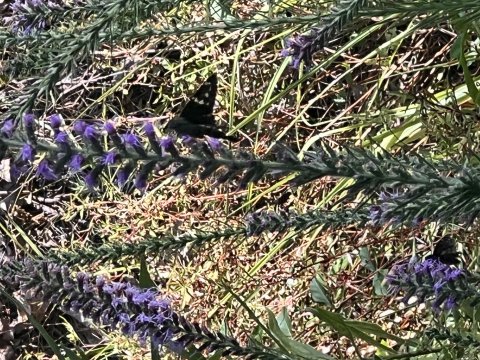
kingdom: Animalia
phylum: Arthropoda
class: Insecta
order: Lepidoptera
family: Hesperiidae
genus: Urbanus
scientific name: Urbanus proteus
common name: Long-tailed Skipper
